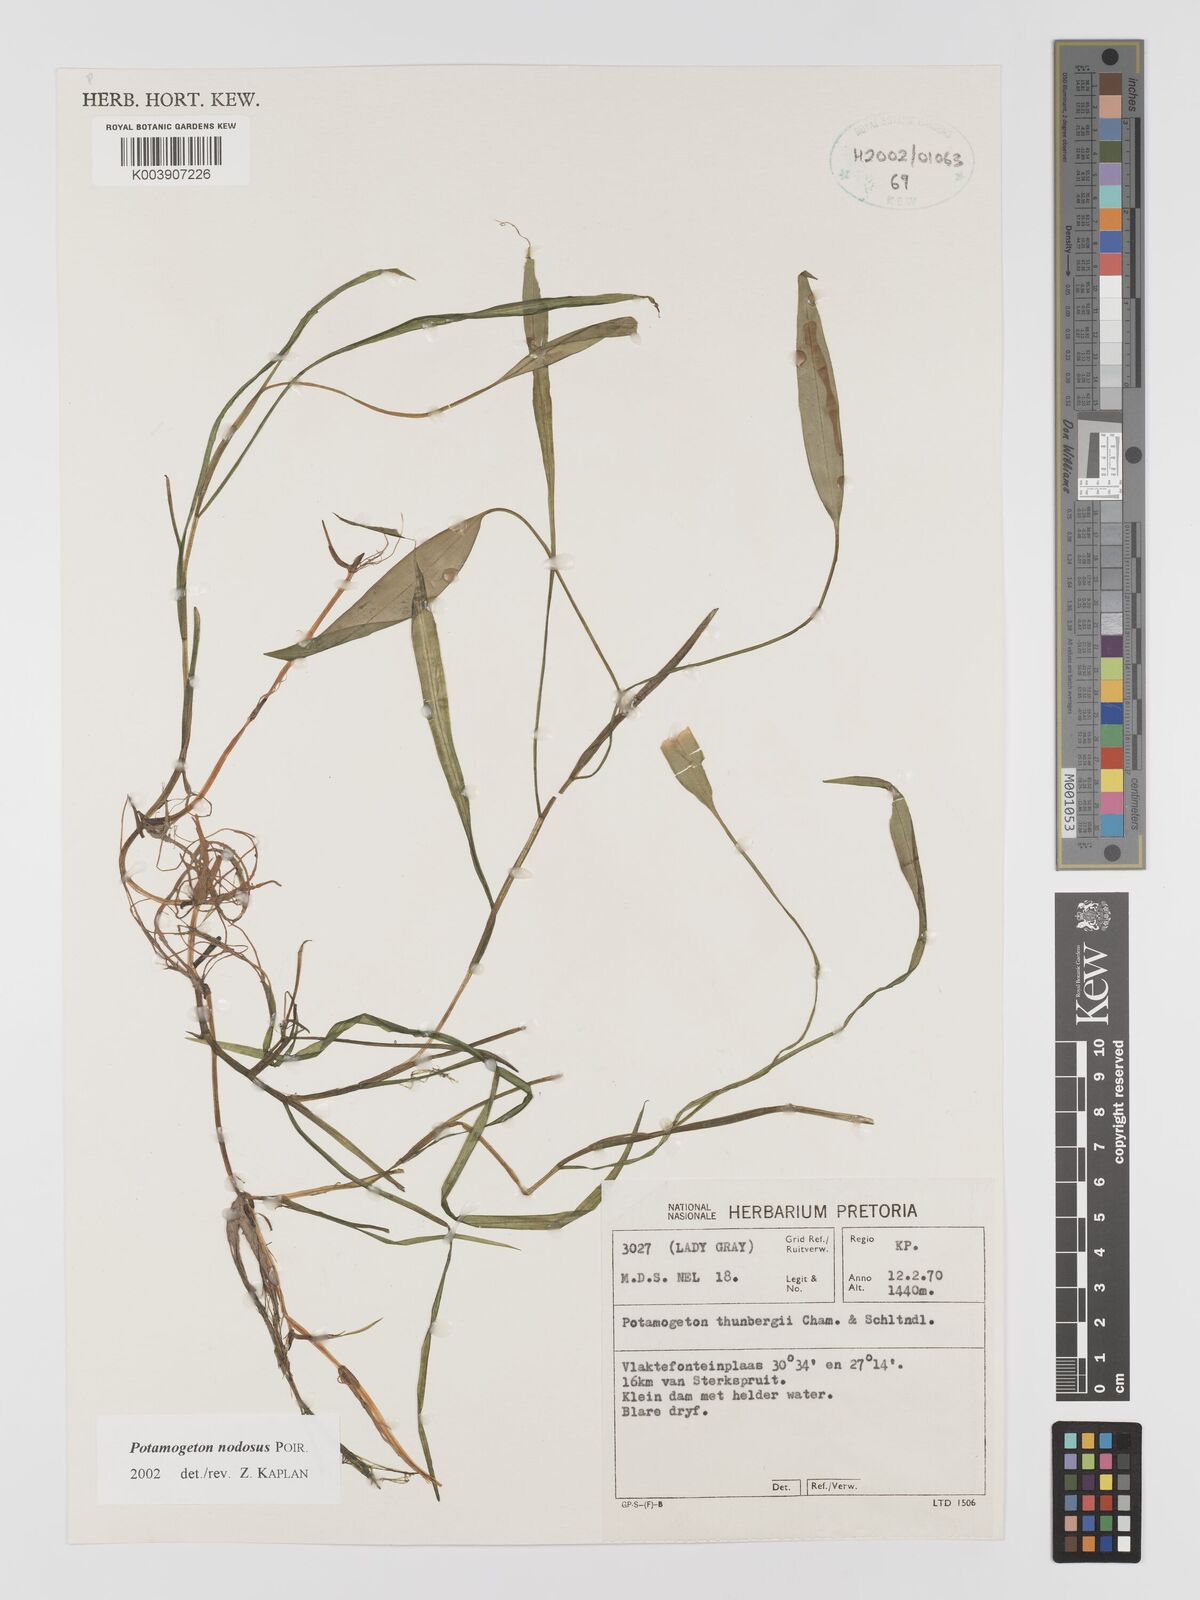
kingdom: Plantae
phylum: Tracheophyta
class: Liliopsida
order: Alismatales
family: Potamogetonaceae
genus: Potamogeton
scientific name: Potamogeton nodosus
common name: Loddon pondweed
